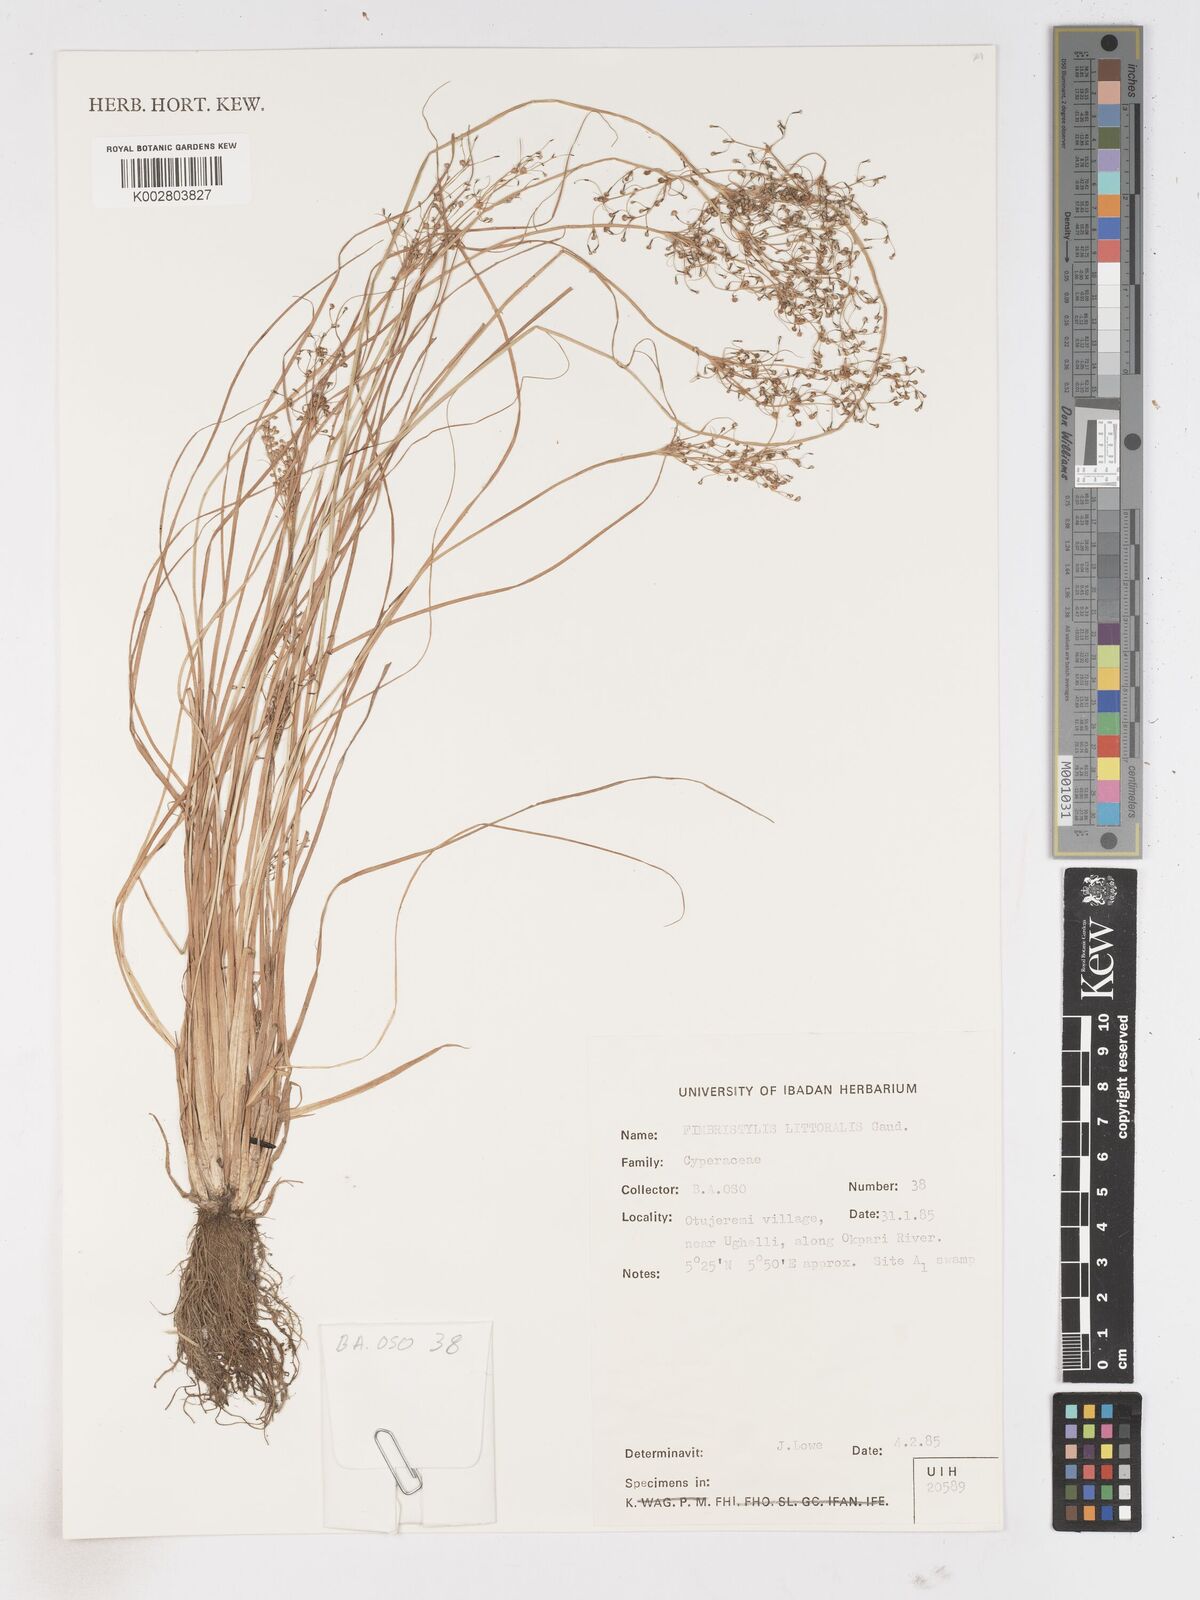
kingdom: Plantae
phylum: Tracheophyta
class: Liliopsida
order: Poales
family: Cyperaceae
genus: Fimbristylis
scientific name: Fimbristylis littoralis
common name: Fimbry
